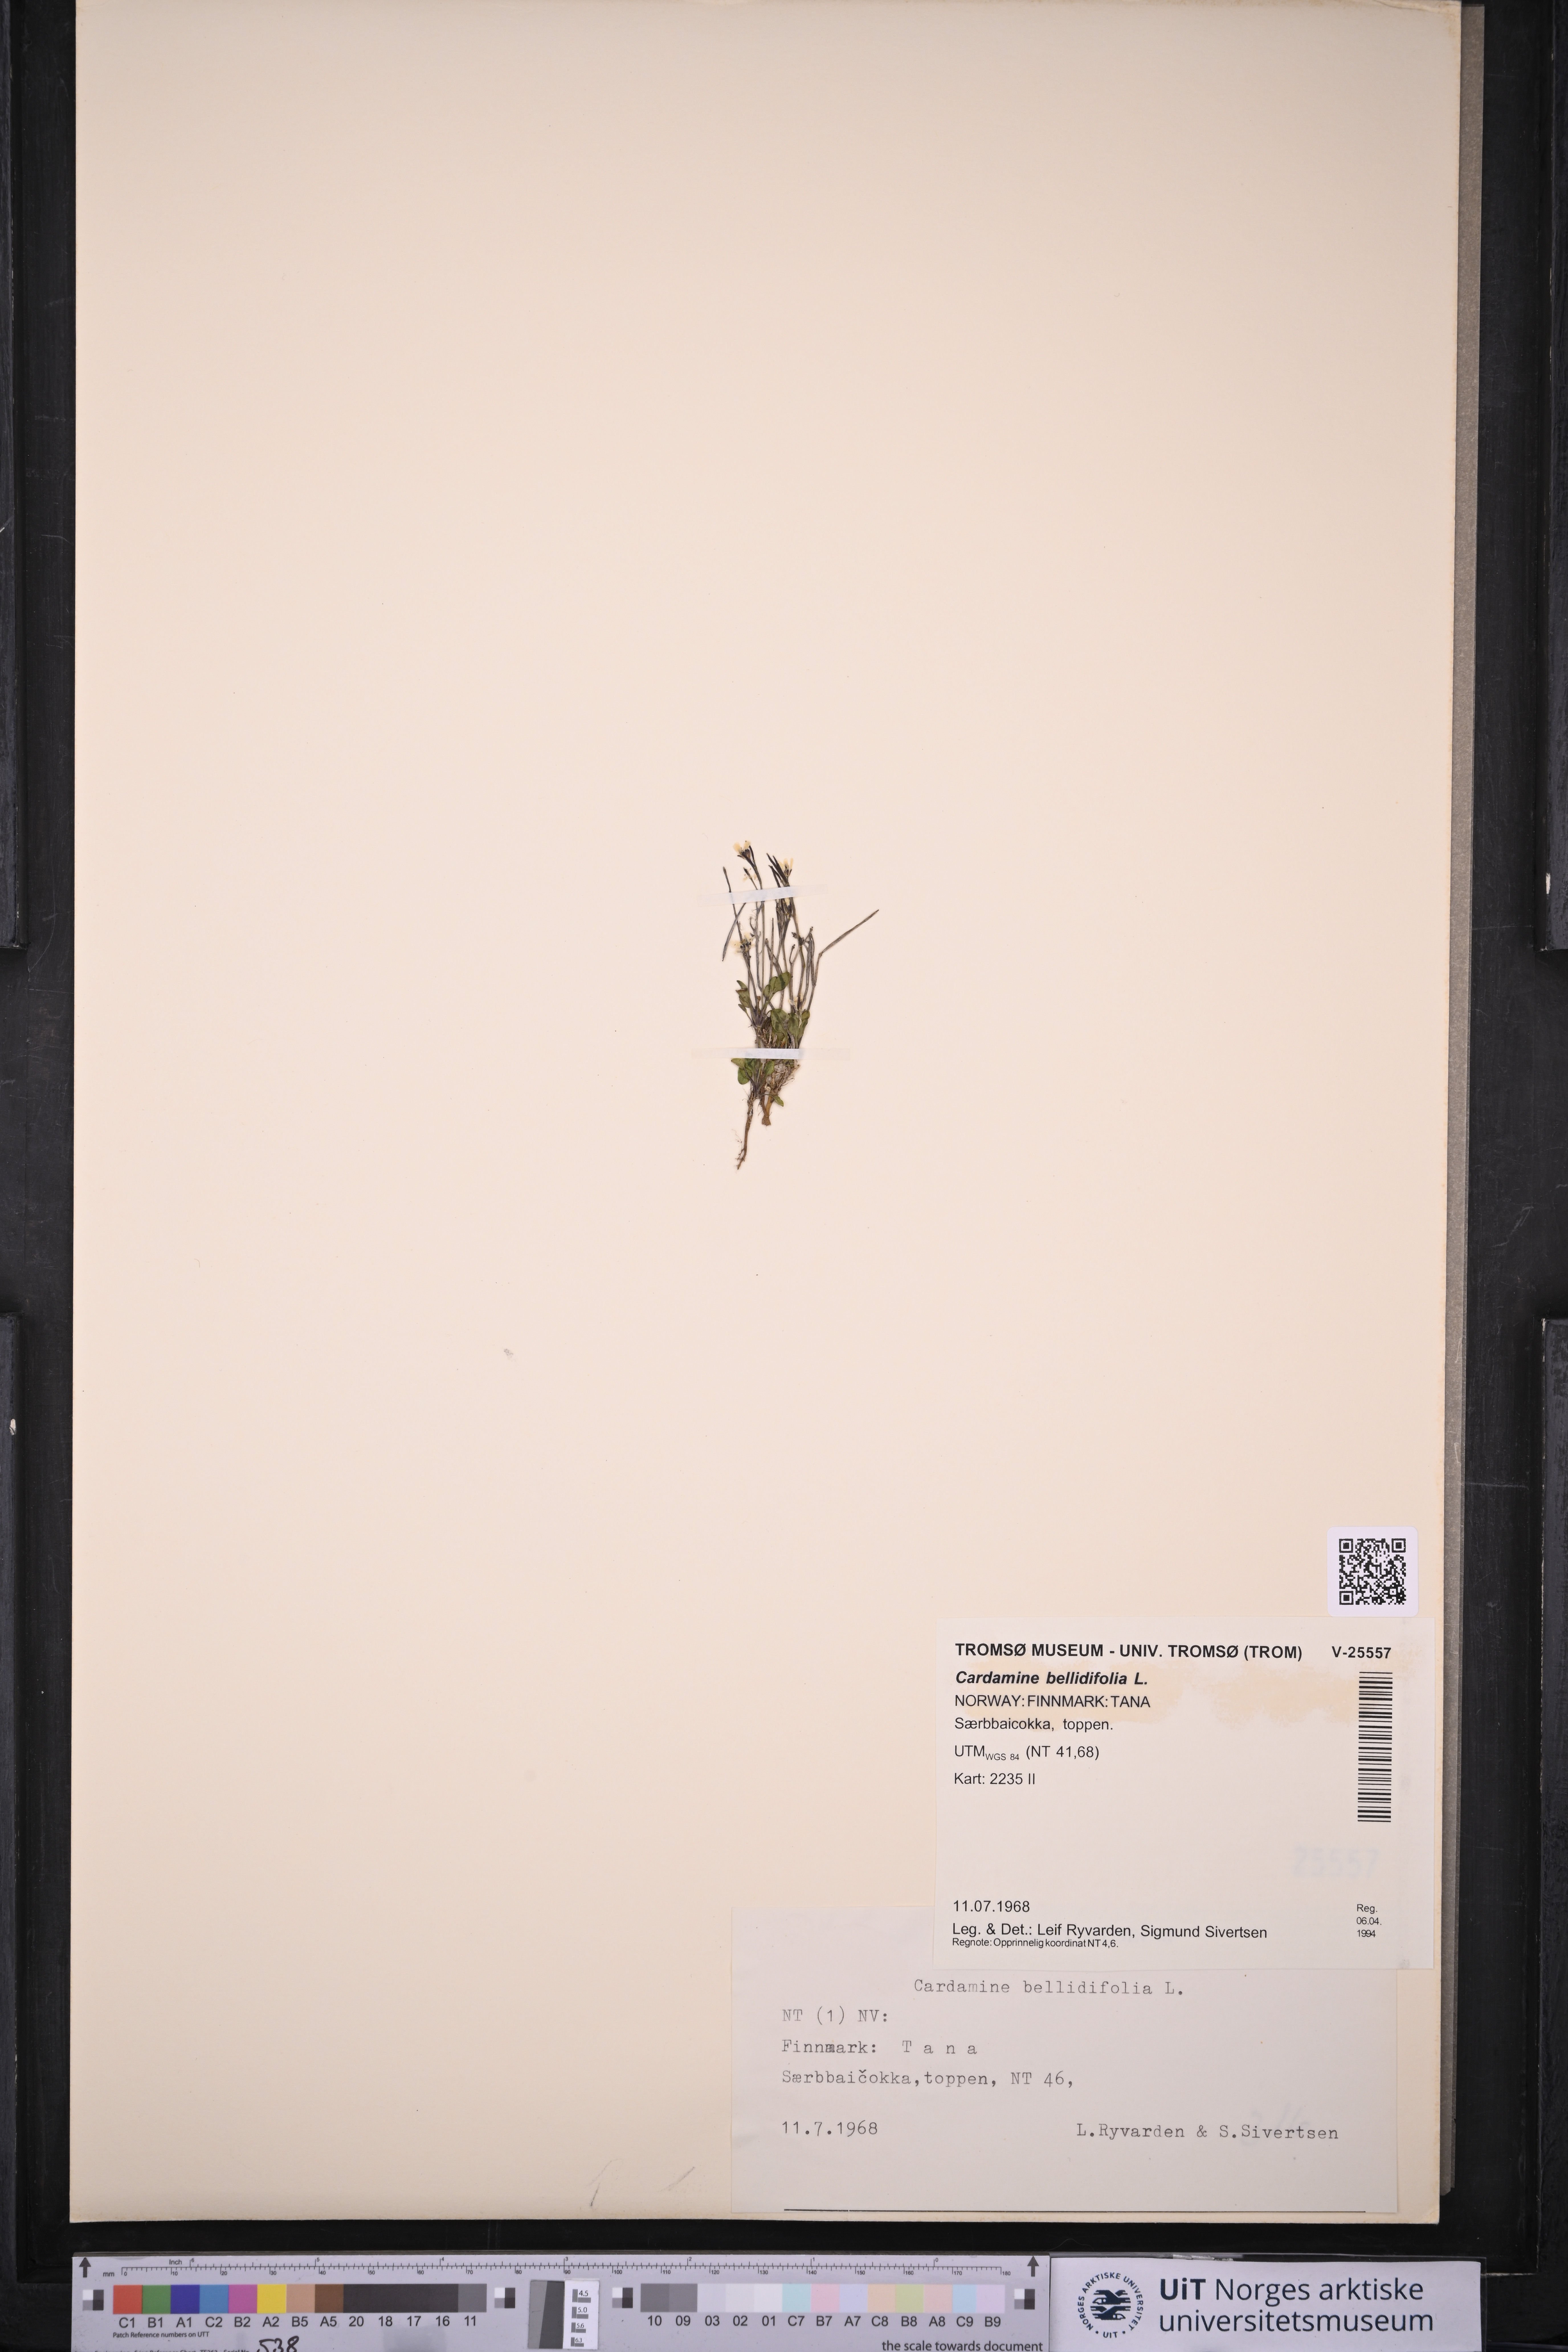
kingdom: Plantae
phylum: Tracheophyta
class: Magnoliopsida
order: Brassicales
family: Brassicaceae
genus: Cardamine
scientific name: Cardamine bellidifolia
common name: Alpine bittercress
